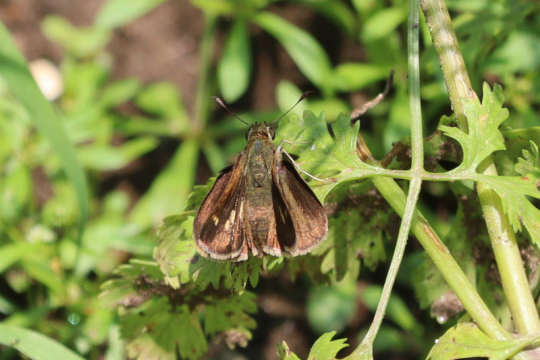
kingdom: Animalia
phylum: Arthropoda
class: Insecta
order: Lepidoptera
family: Hesperiidae
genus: Polites
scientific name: Polites egeremet
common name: Northern Broken-Dash
